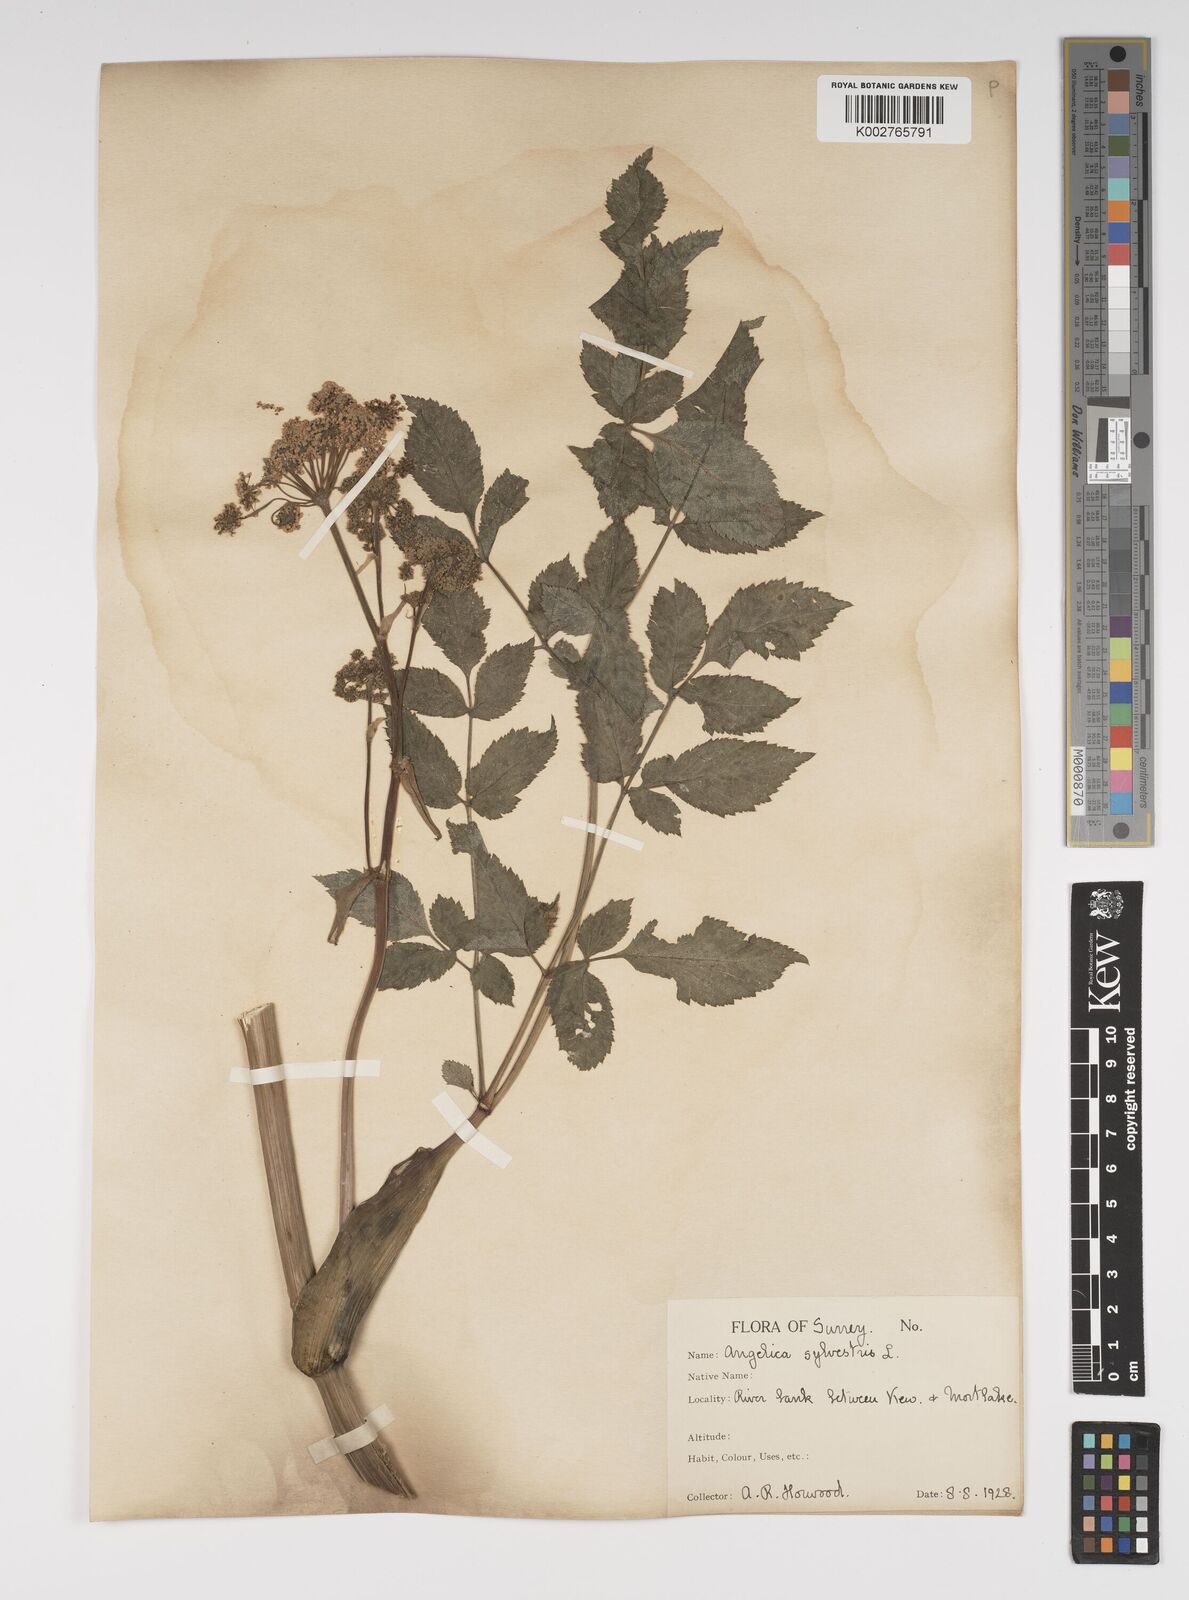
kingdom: Plantae
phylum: Tracheophyta
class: Magnoliopsida
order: Apiales
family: Apiaceae
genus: Angelica
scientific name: Angelica sylvestris
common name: Wild angelica
